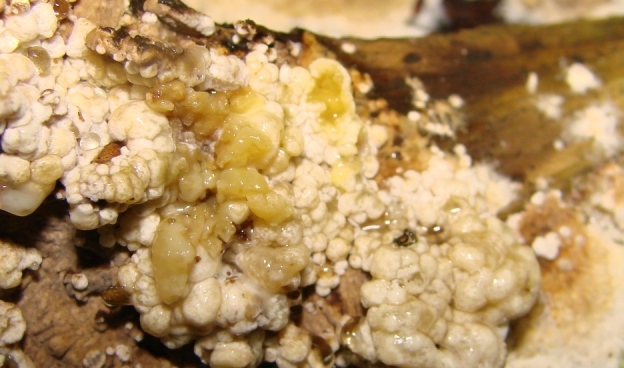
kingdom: Fungi
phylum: Basidiomycota
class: Agaricomycetes
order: Boletales
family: Coniophoraceae
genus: Coniophora
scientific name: Coniophora puteana
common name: gul tømmersvamp
